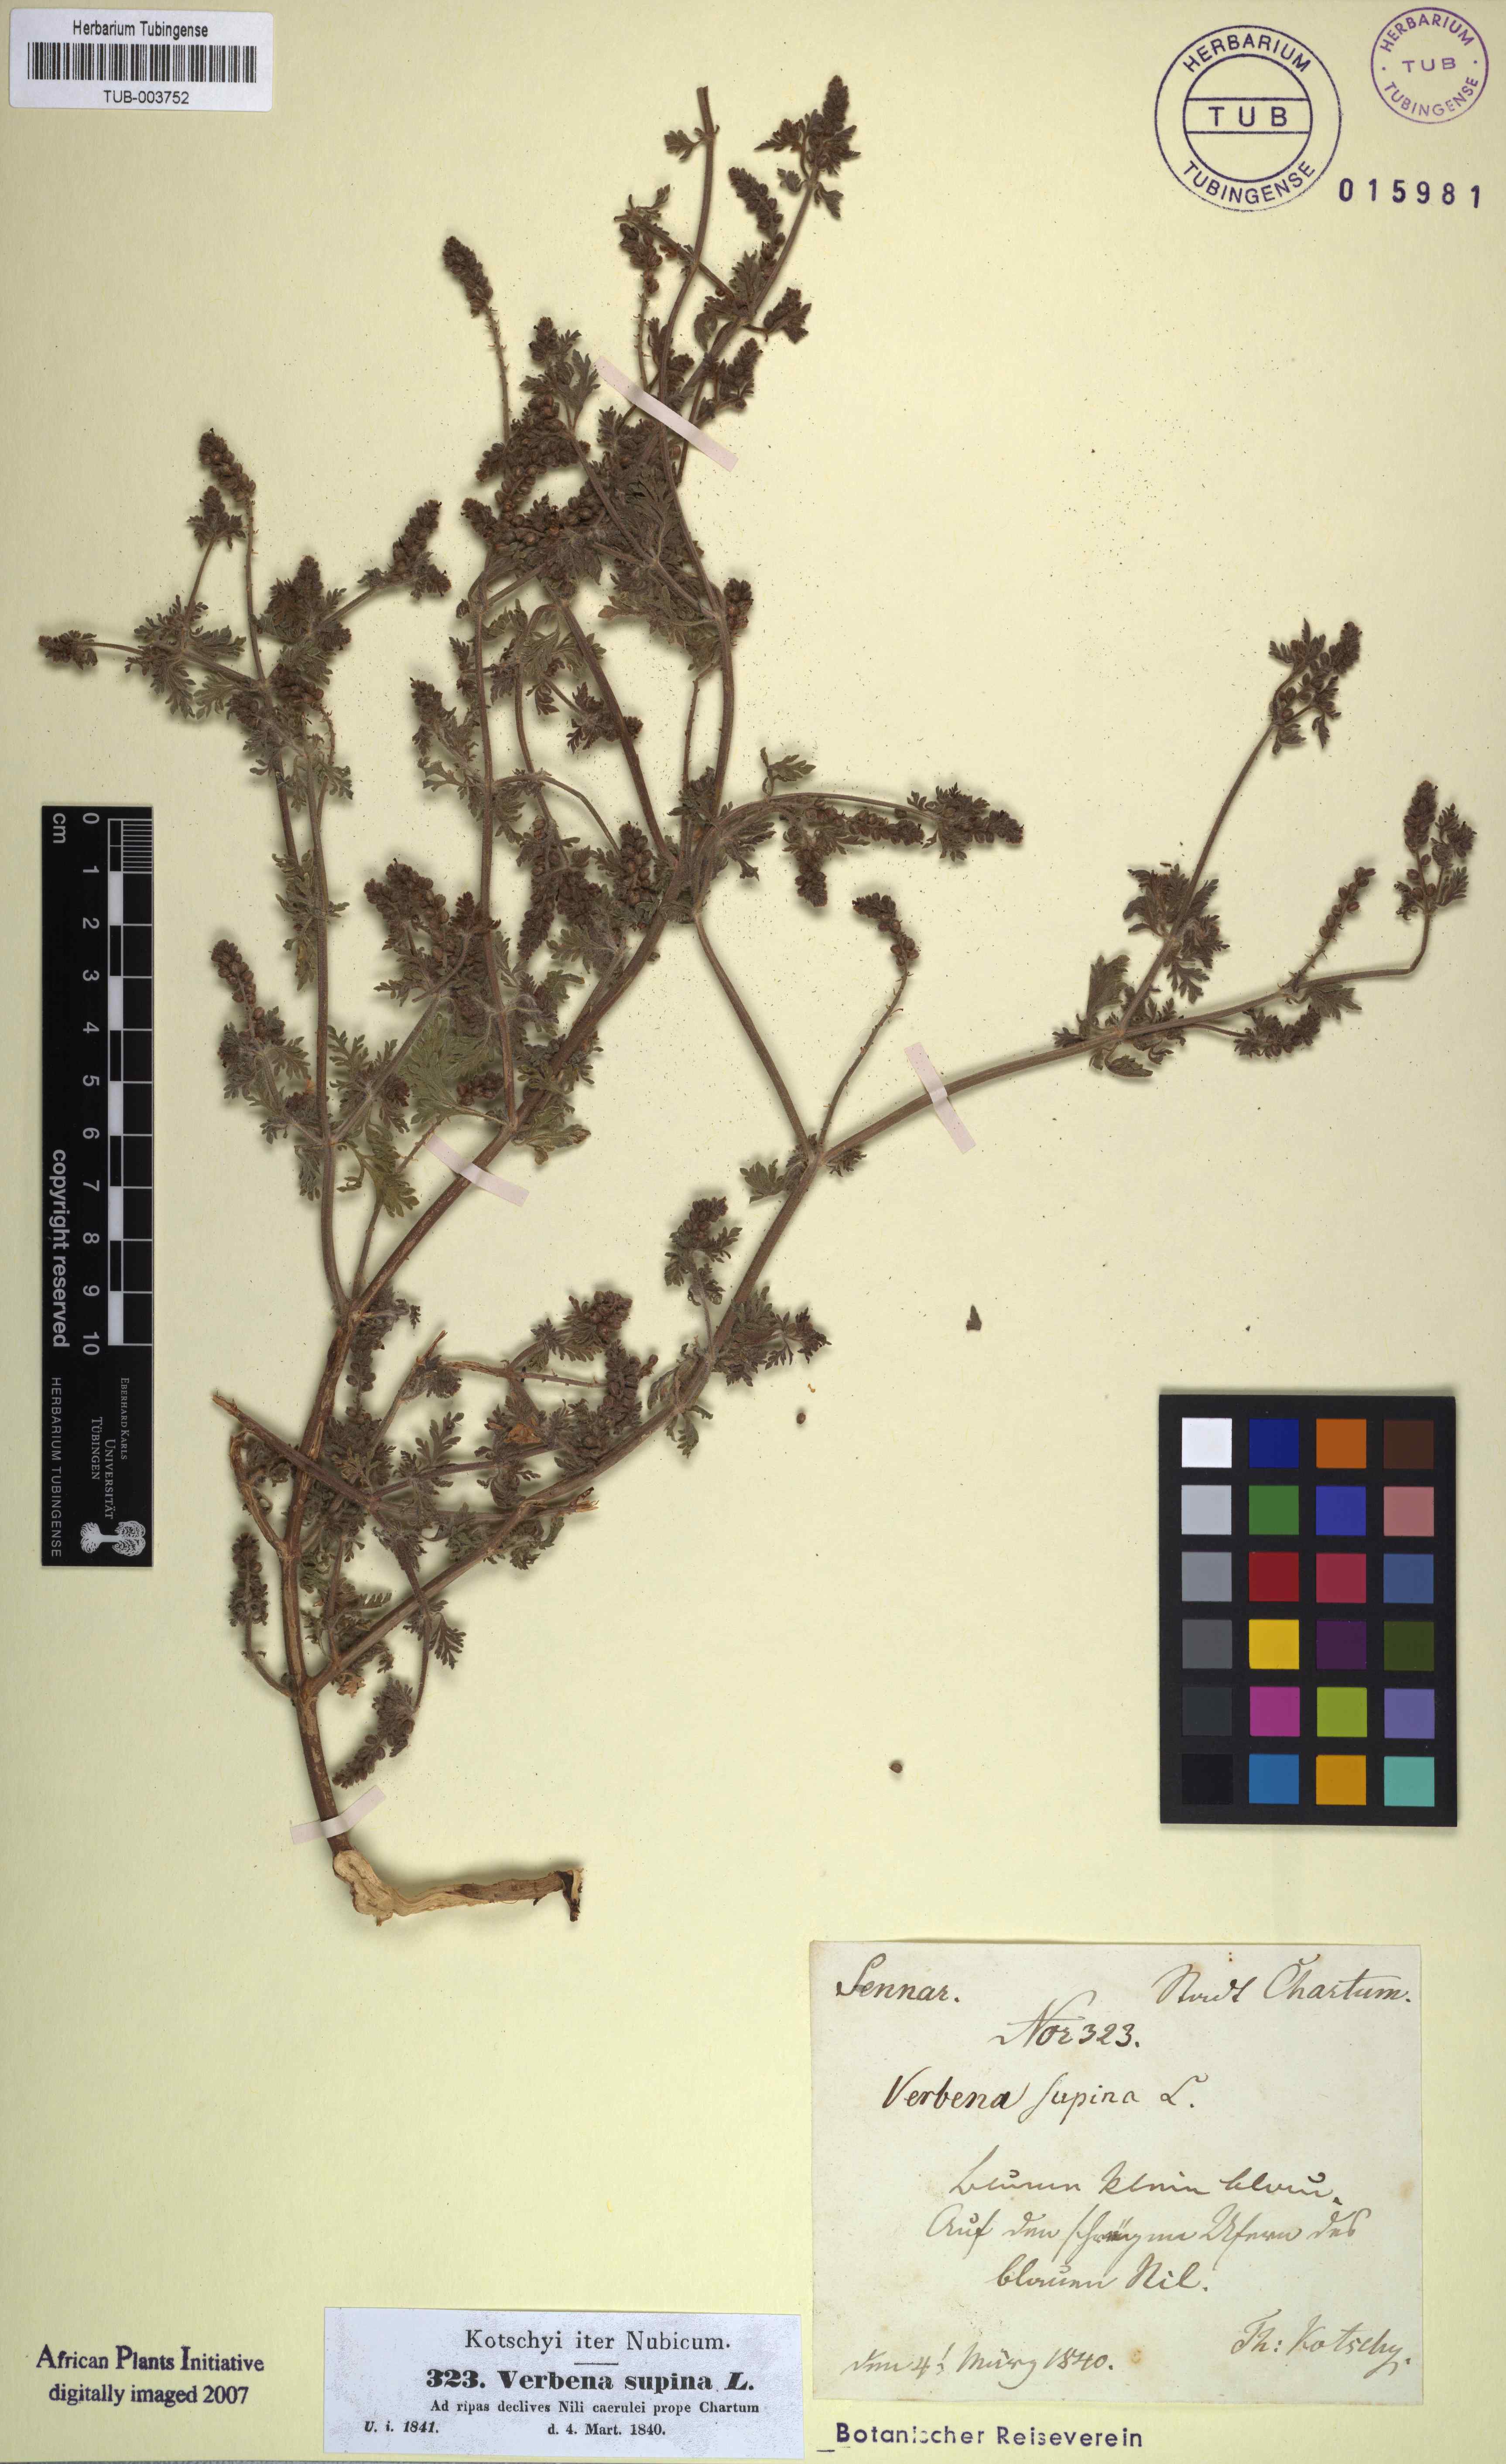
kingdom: Plantae
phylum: Tracheophyta
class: Magnoliopsida
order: Lamiales
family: Verbenaceae
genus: Verbena
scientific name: Verbena supina
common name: Trailing vervain
